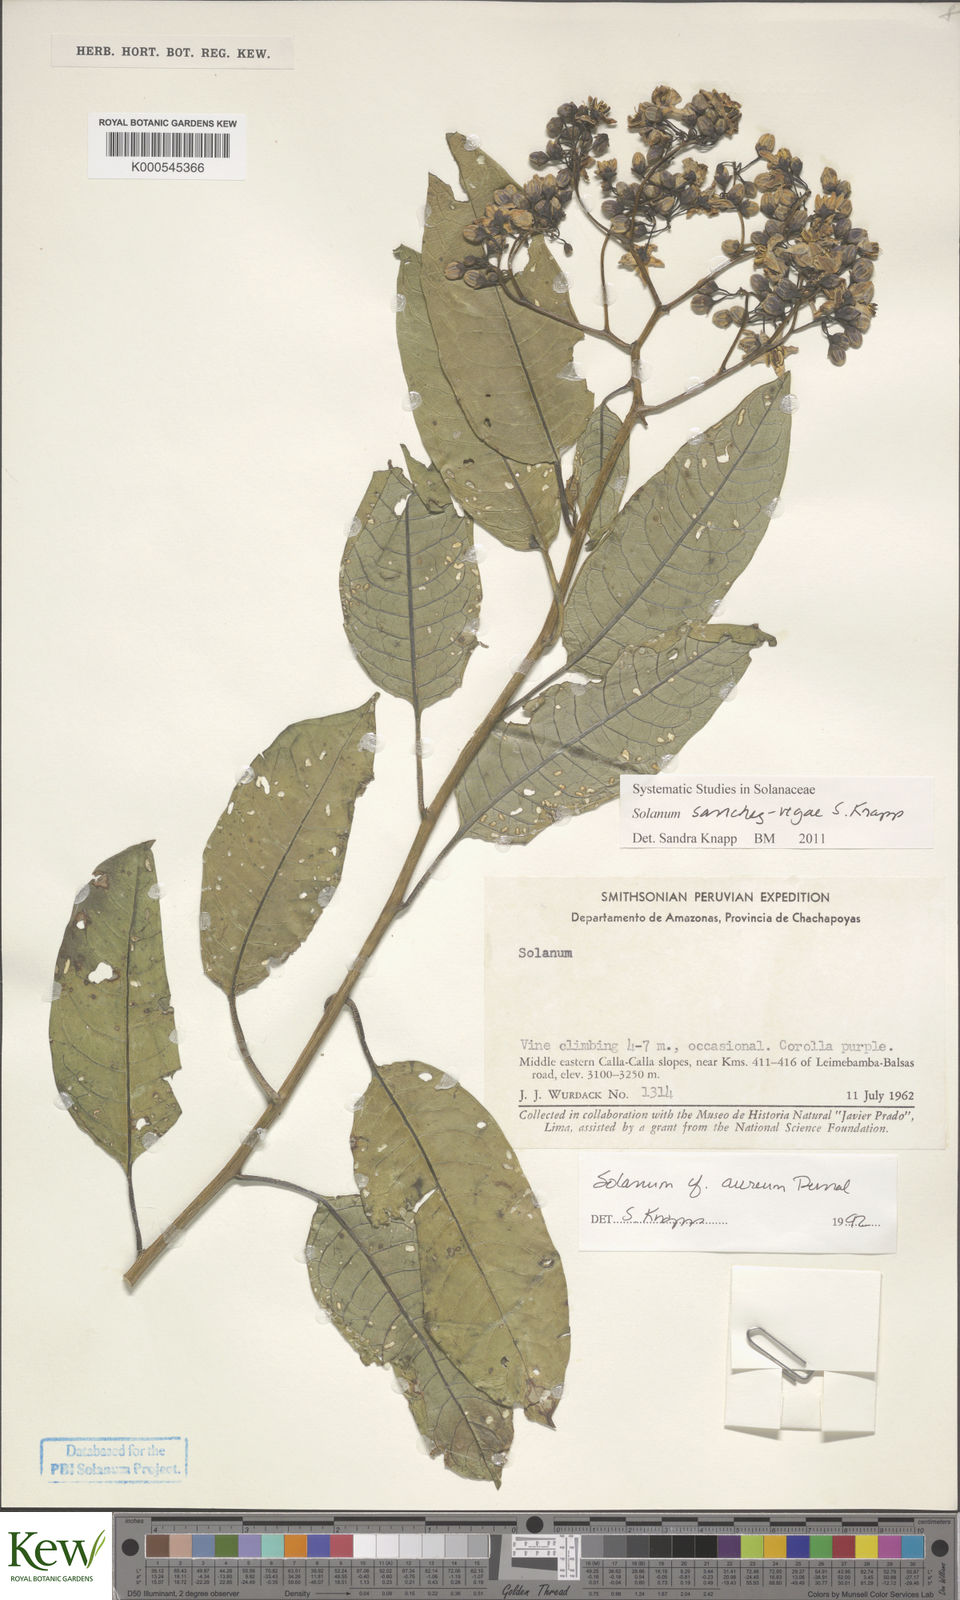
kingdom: Plantae
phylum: Tracheophyta
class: Magnoliopsida
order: Solanales
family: Solanaceae
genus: Solanum
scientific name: Solanum sanchez-vegae
